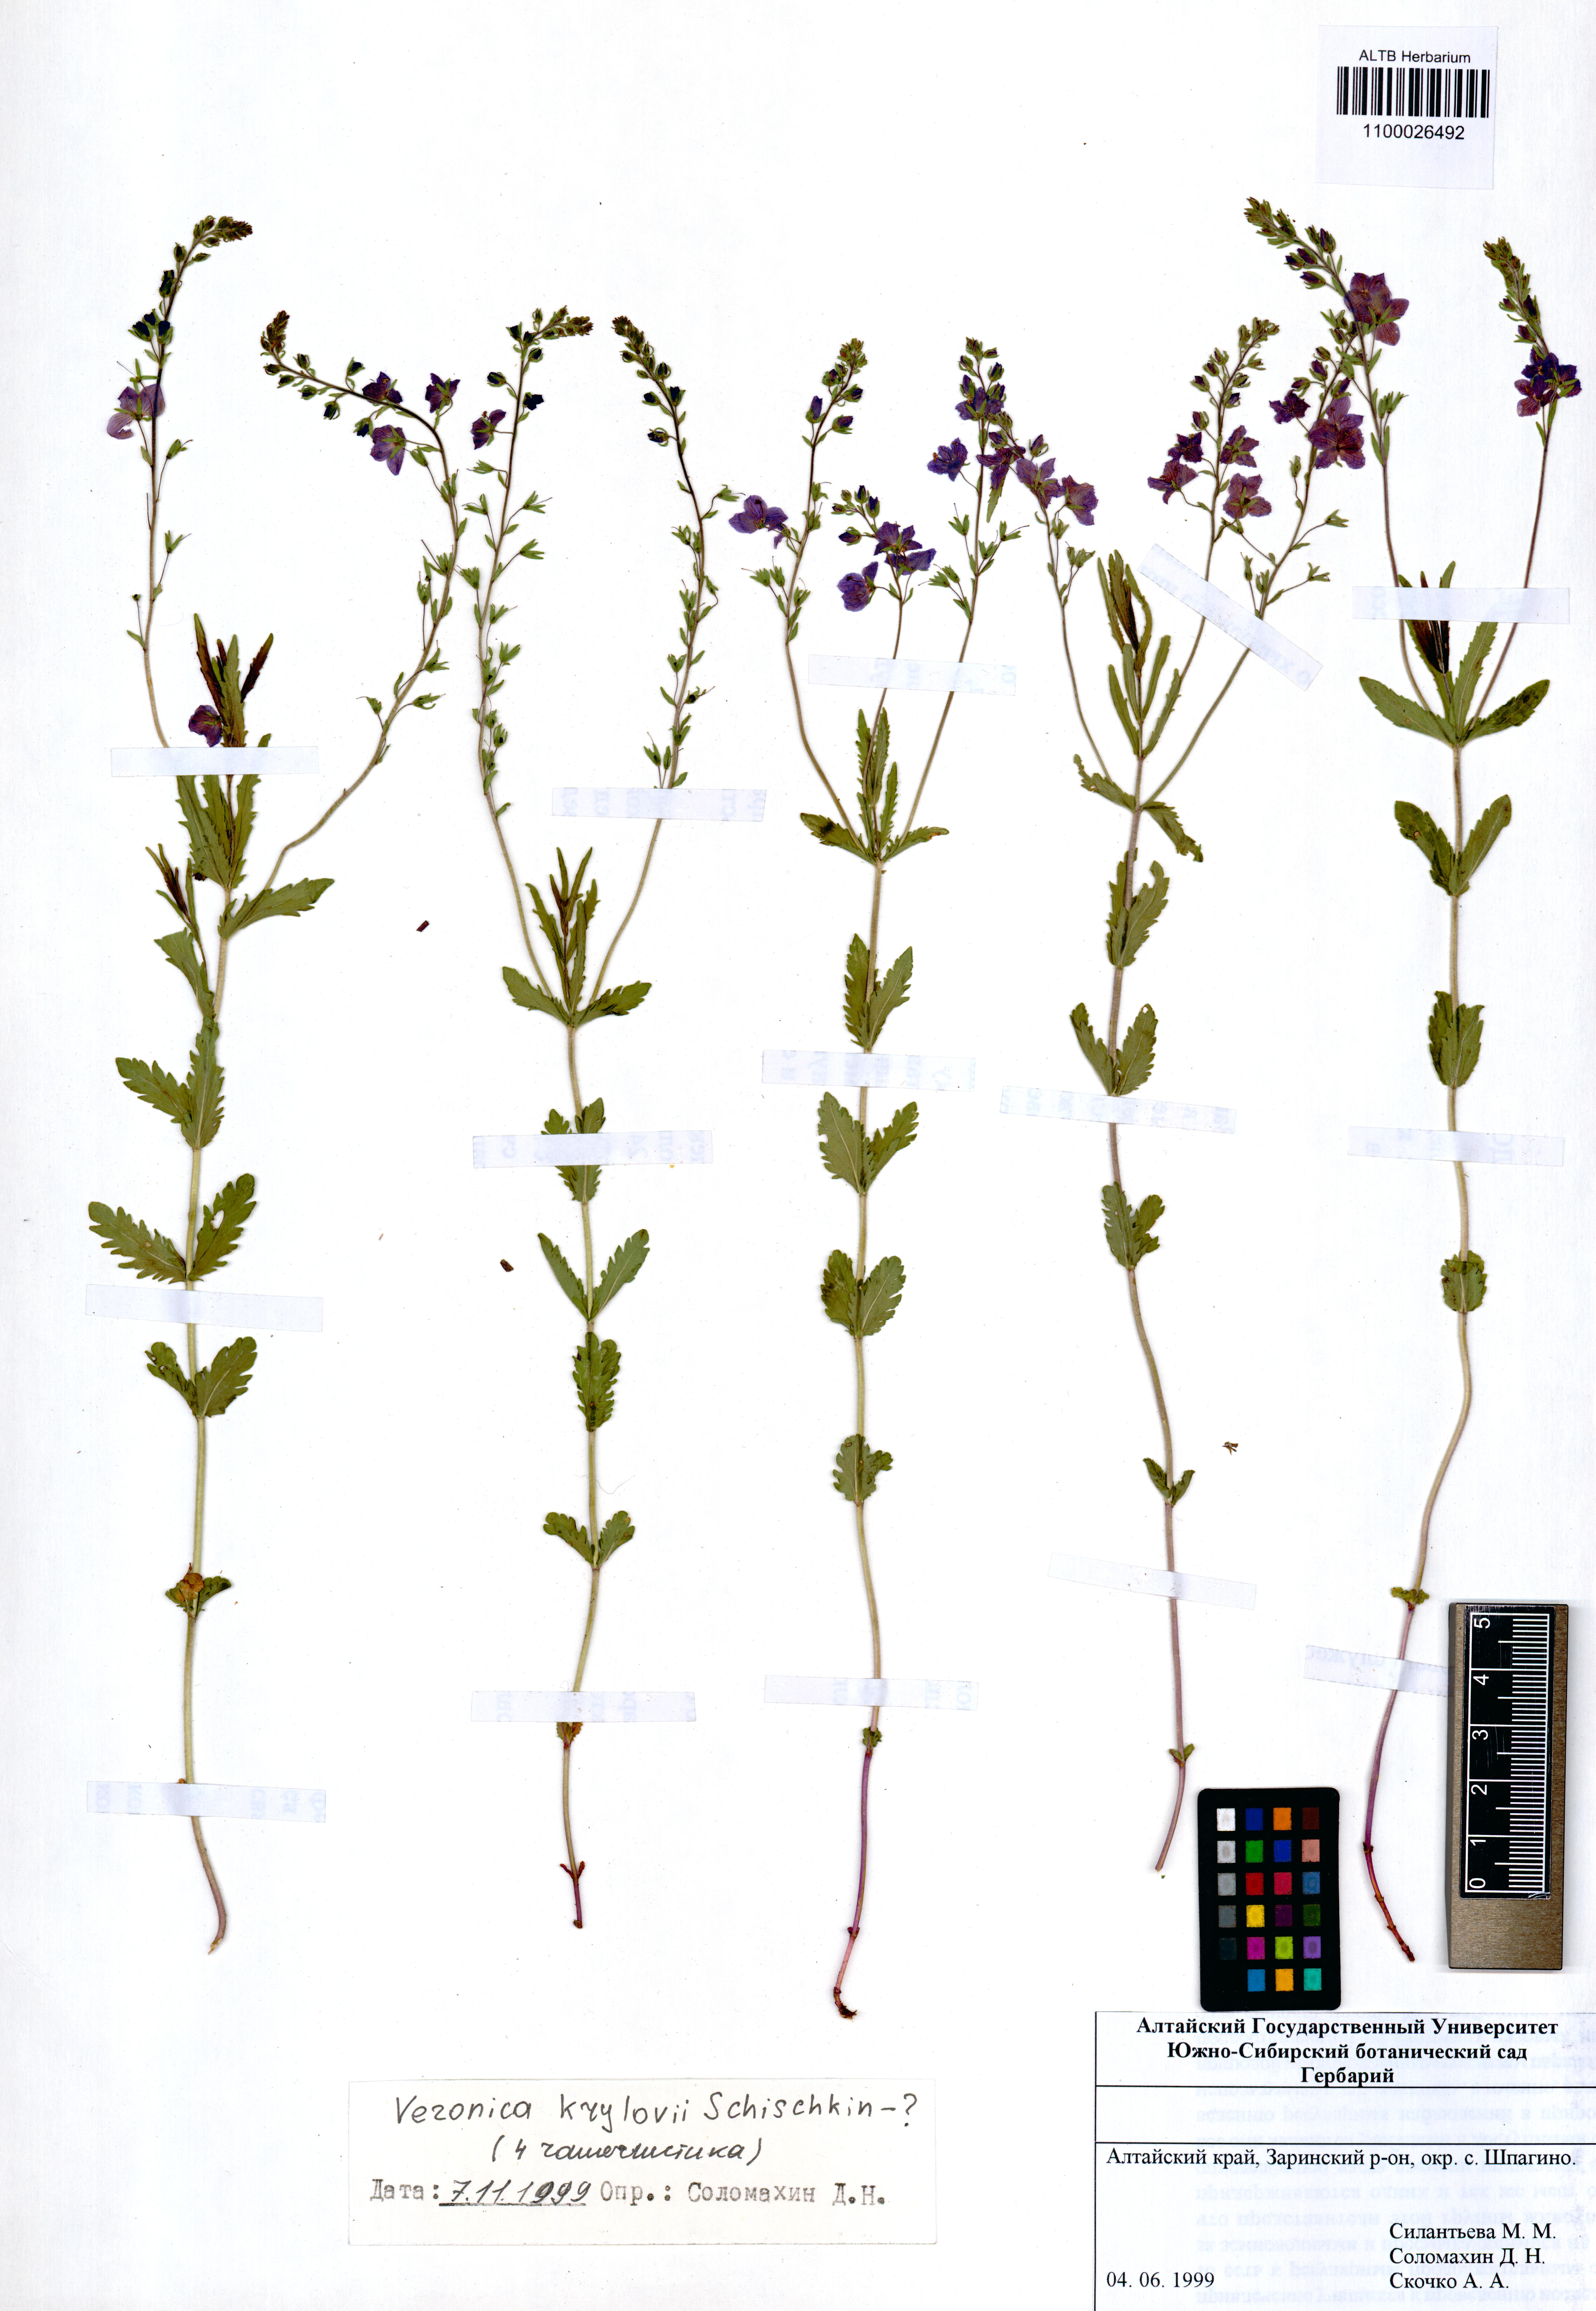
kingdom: Plantae
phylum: Tracheophyta
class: Magnoliopsida
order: Lamiales
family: Plantaginaceae
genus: Veronica
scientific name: Veronica krylovii
